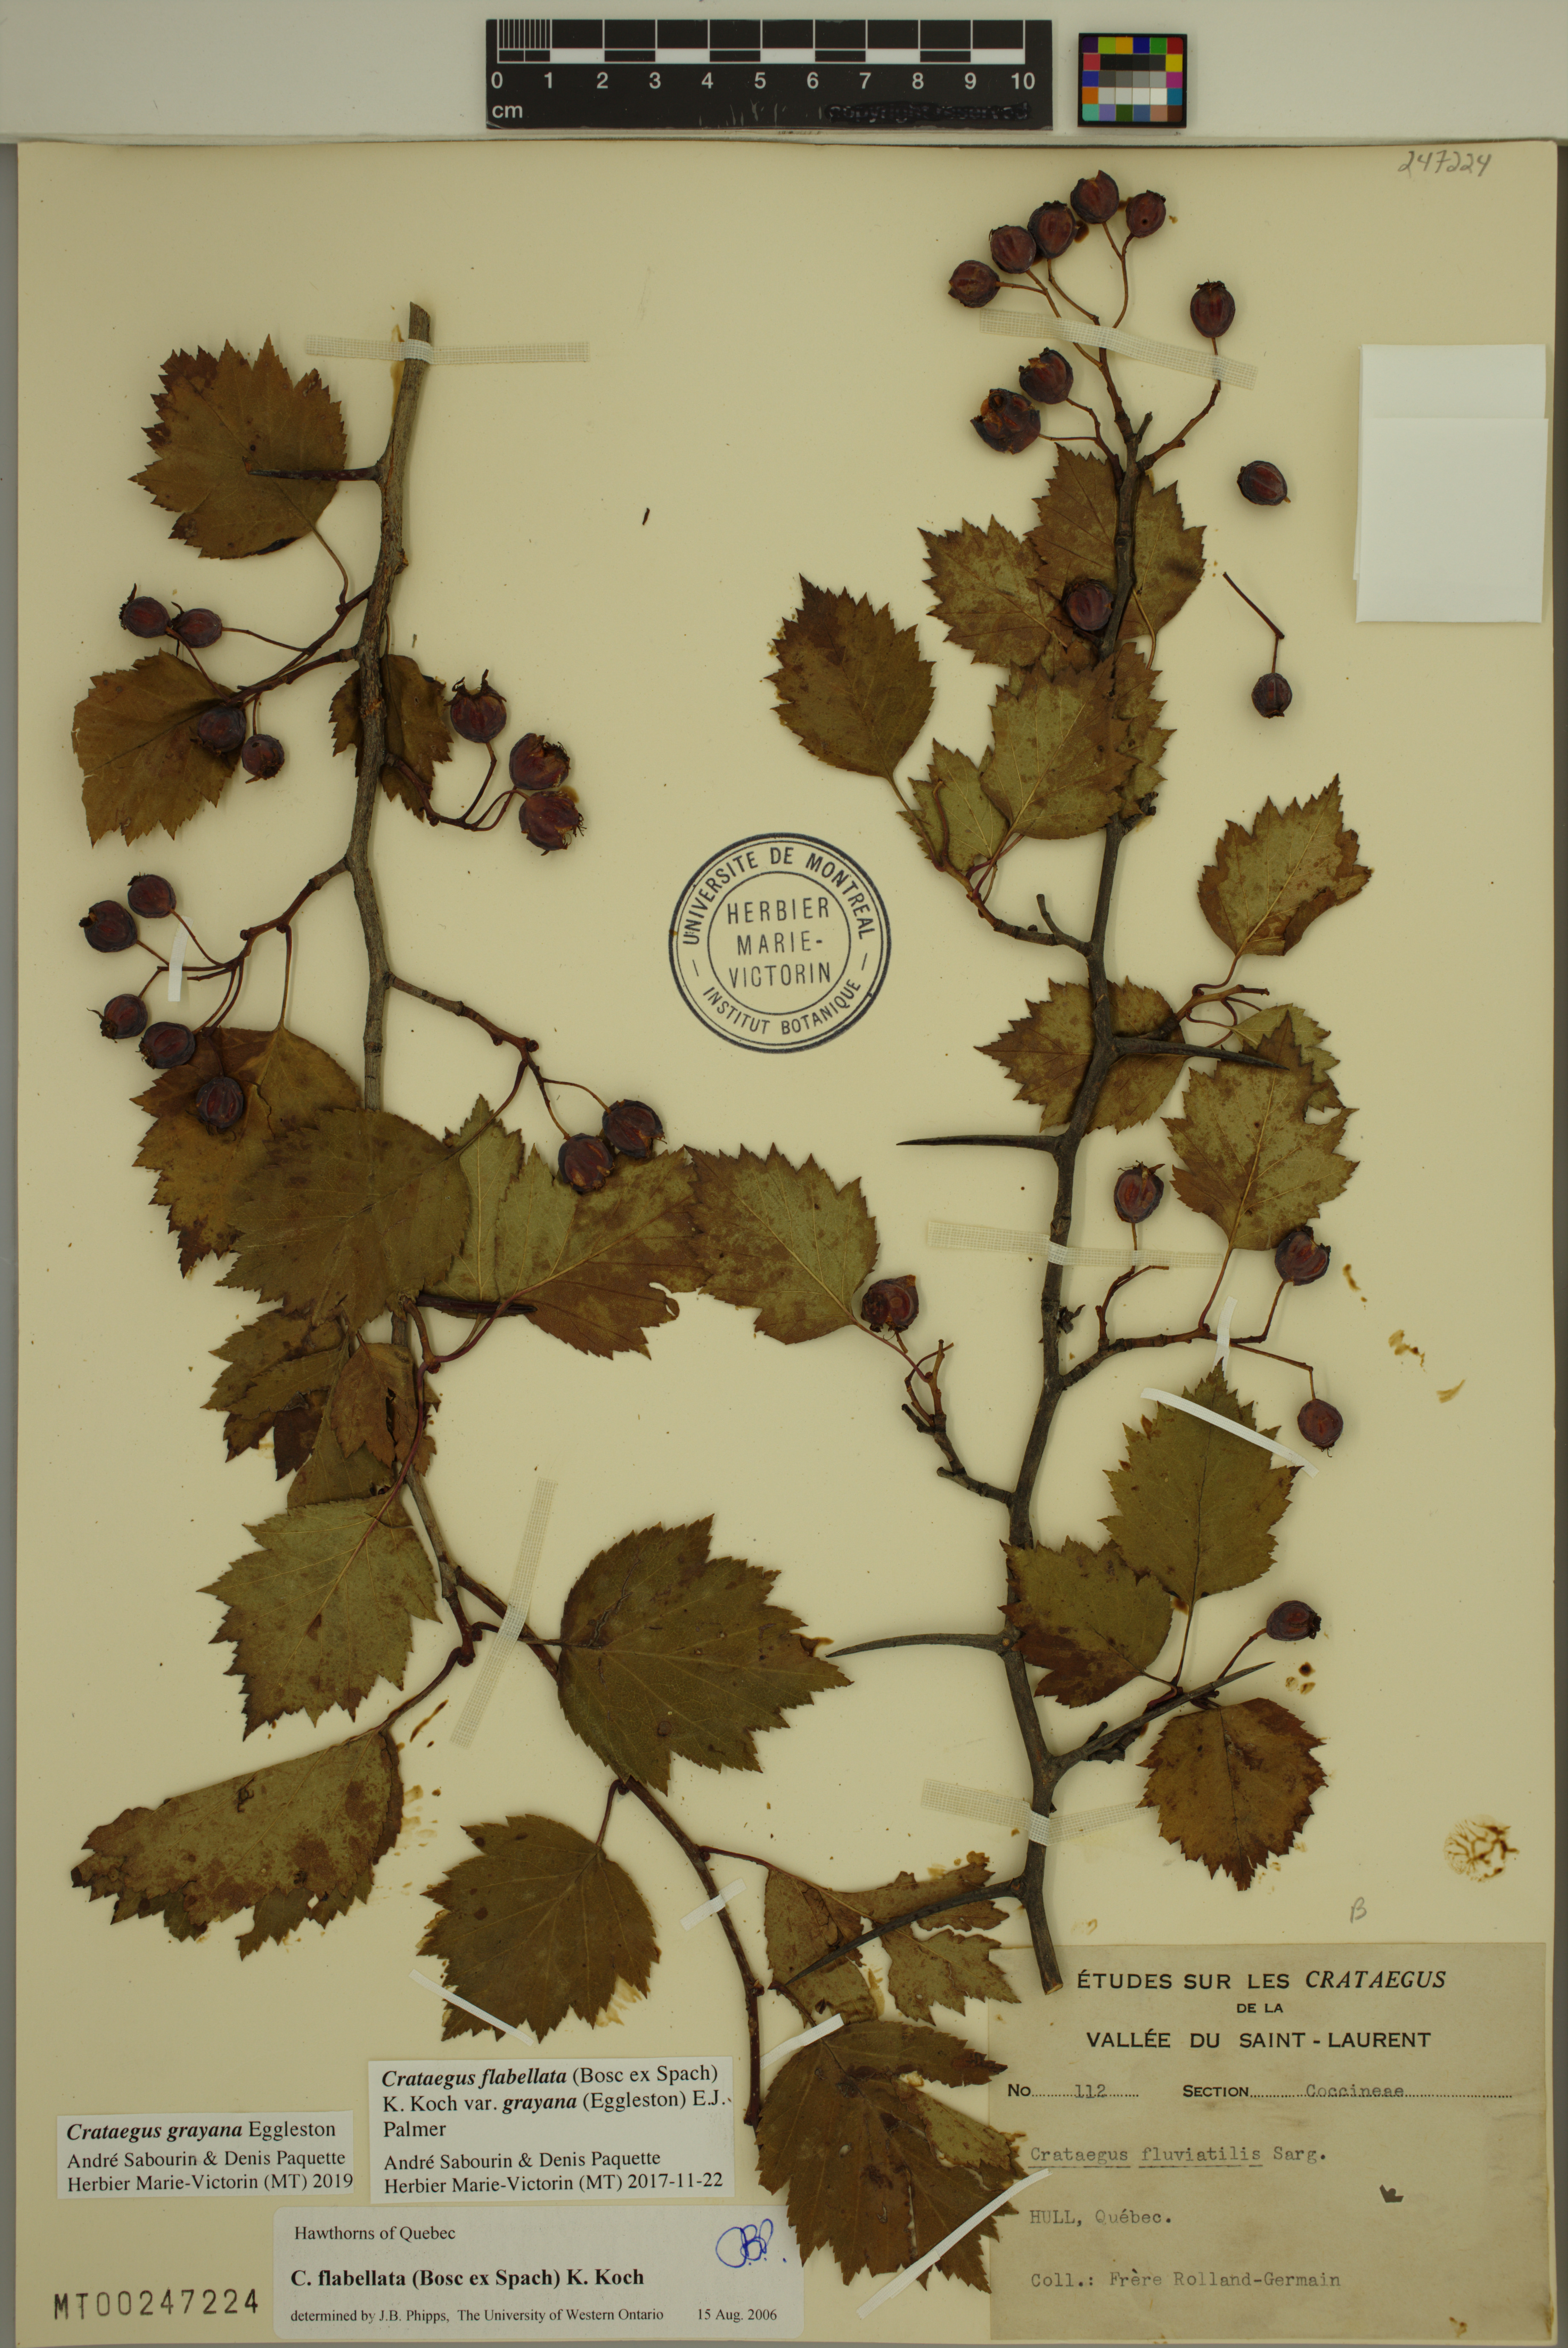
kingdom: Plantae
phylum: Tracheophyta
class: Magnoliopsida
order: Rosales
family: Rosaceae
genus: Crataegus
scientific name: Crataegus schuettei
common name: Schuette's hawthorn
